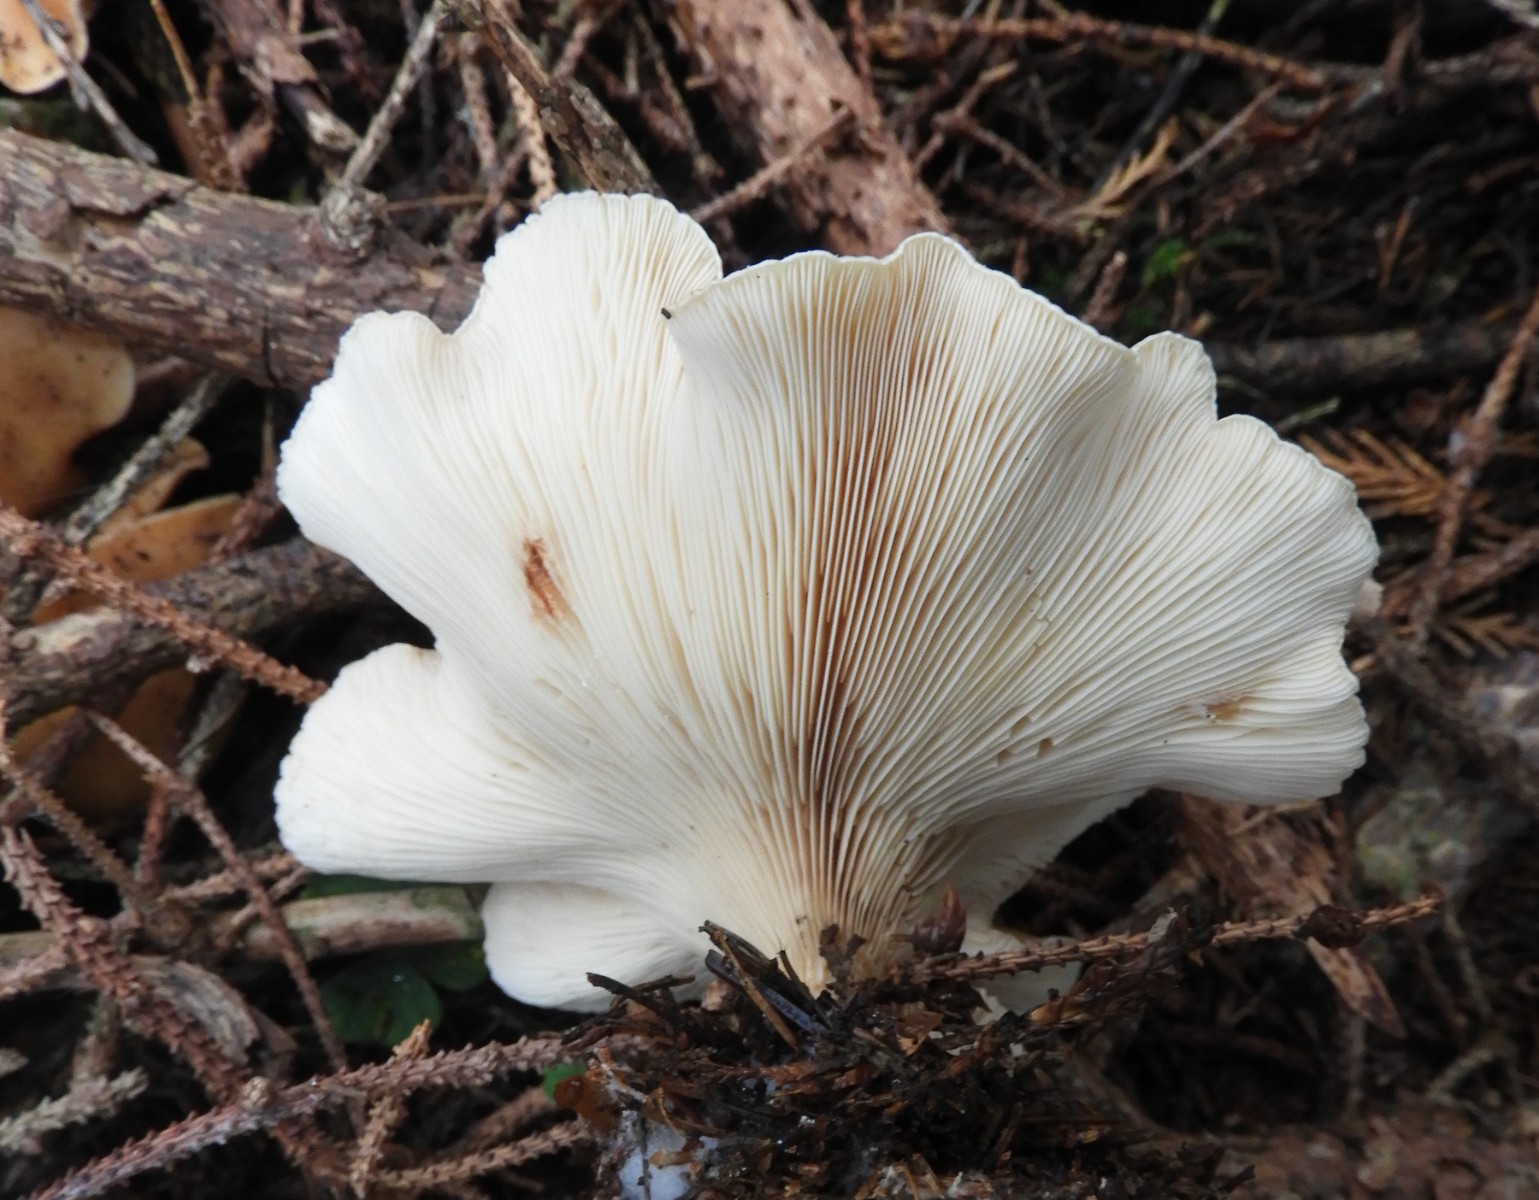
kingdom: Fungi
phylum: Basidiomycota
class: Agaricomycetes
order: Agaricales
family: Tricholomataceae
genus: Paralepista
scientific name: Paralepista flaccida
